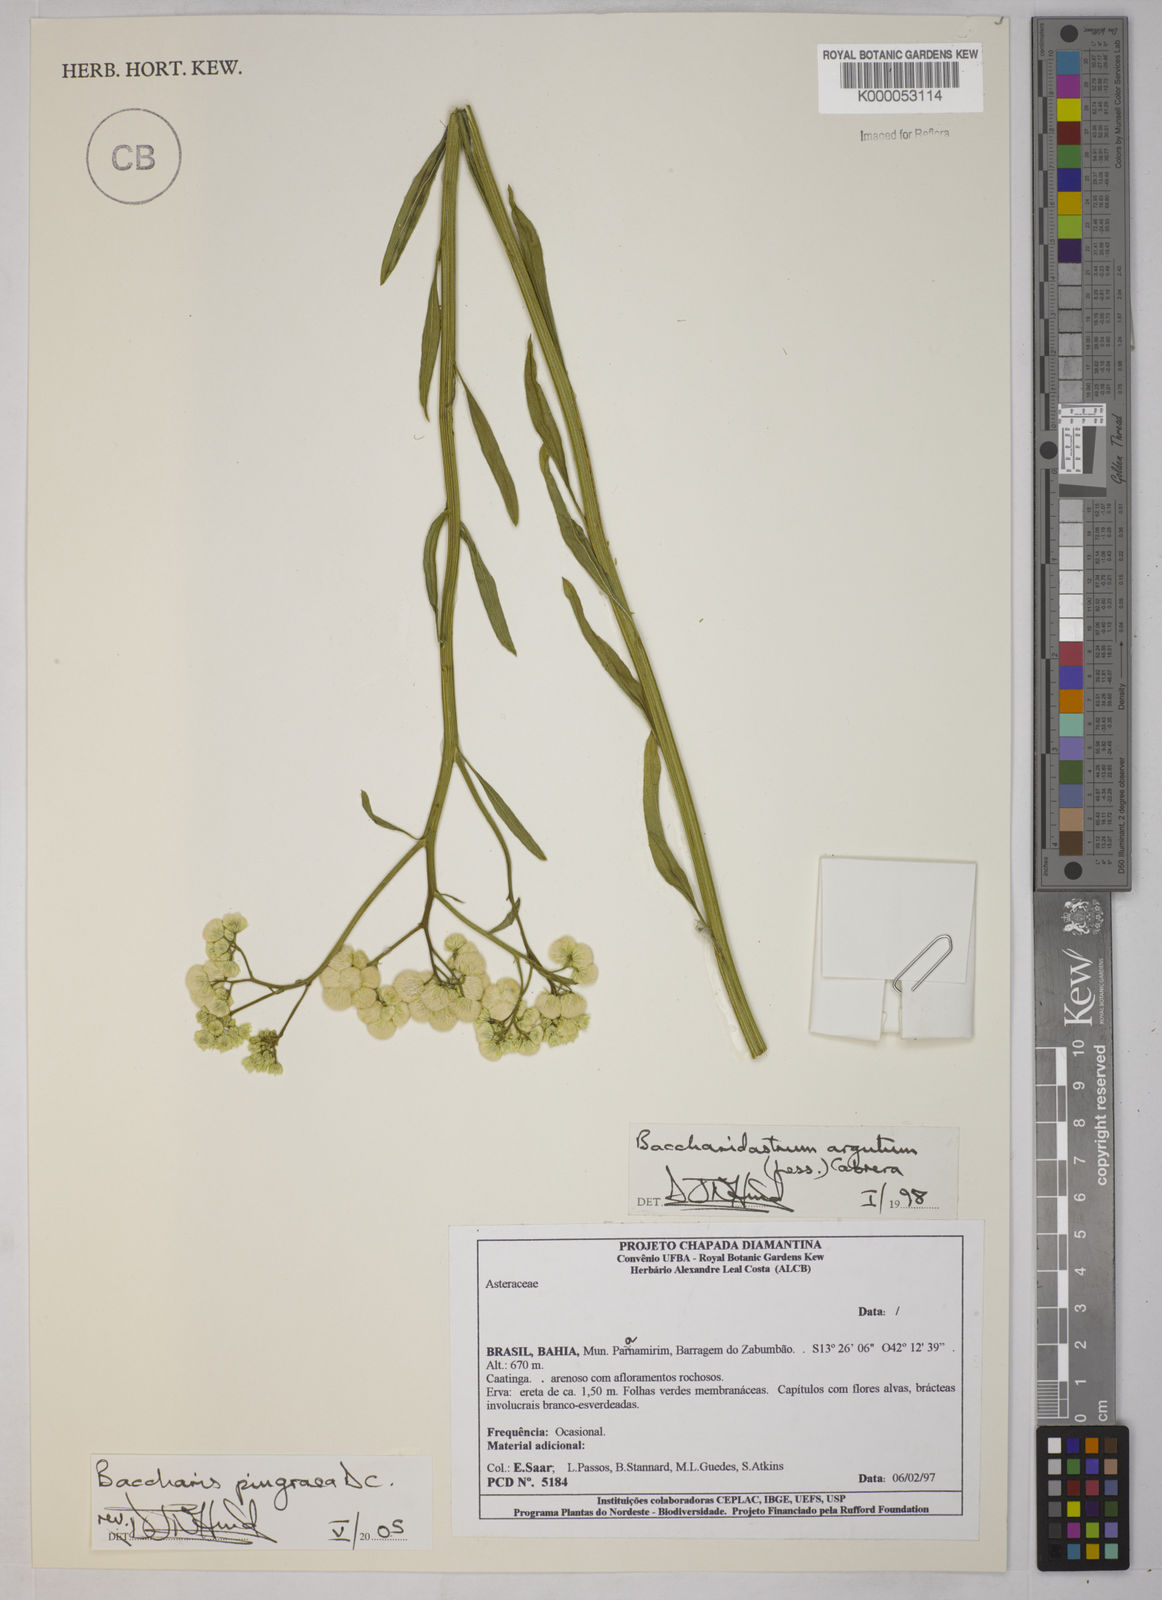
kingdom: Plantae
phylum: Tracheophyta
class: Magnoliopsida
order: Asterales
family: Asteraceae
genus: Baccharis
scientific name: Baccharis glutinosa
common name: Saltmarsh baccharis
